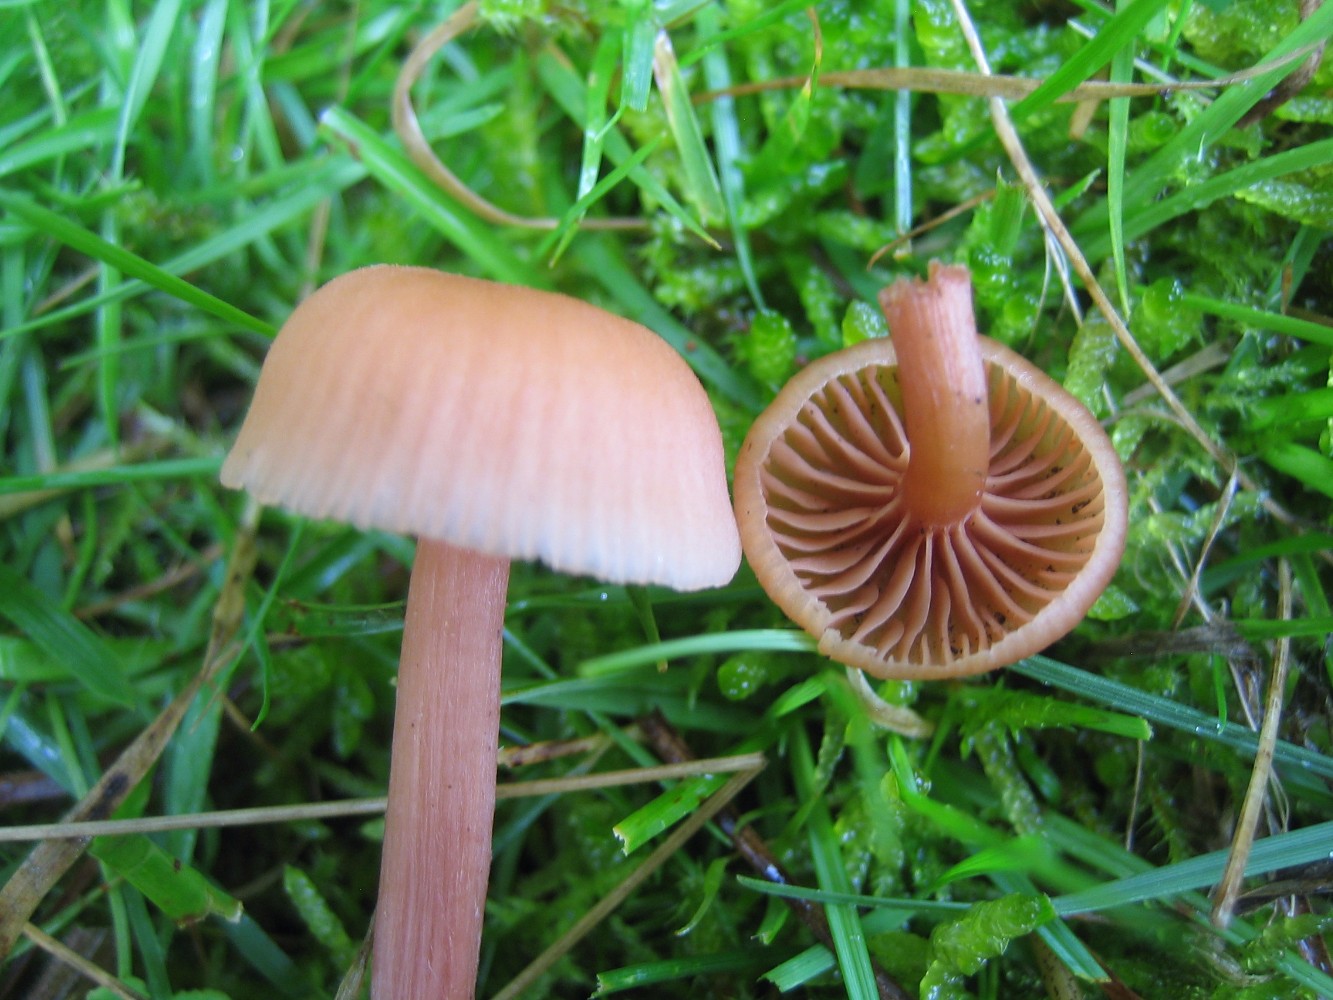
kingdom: Fungi
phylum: Basidiomycota
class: Agaricomycetes
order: Agaricales
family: Hydnangiaceae
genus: Laccaria
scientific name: Laccaria laccata
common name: rød ametysthat
